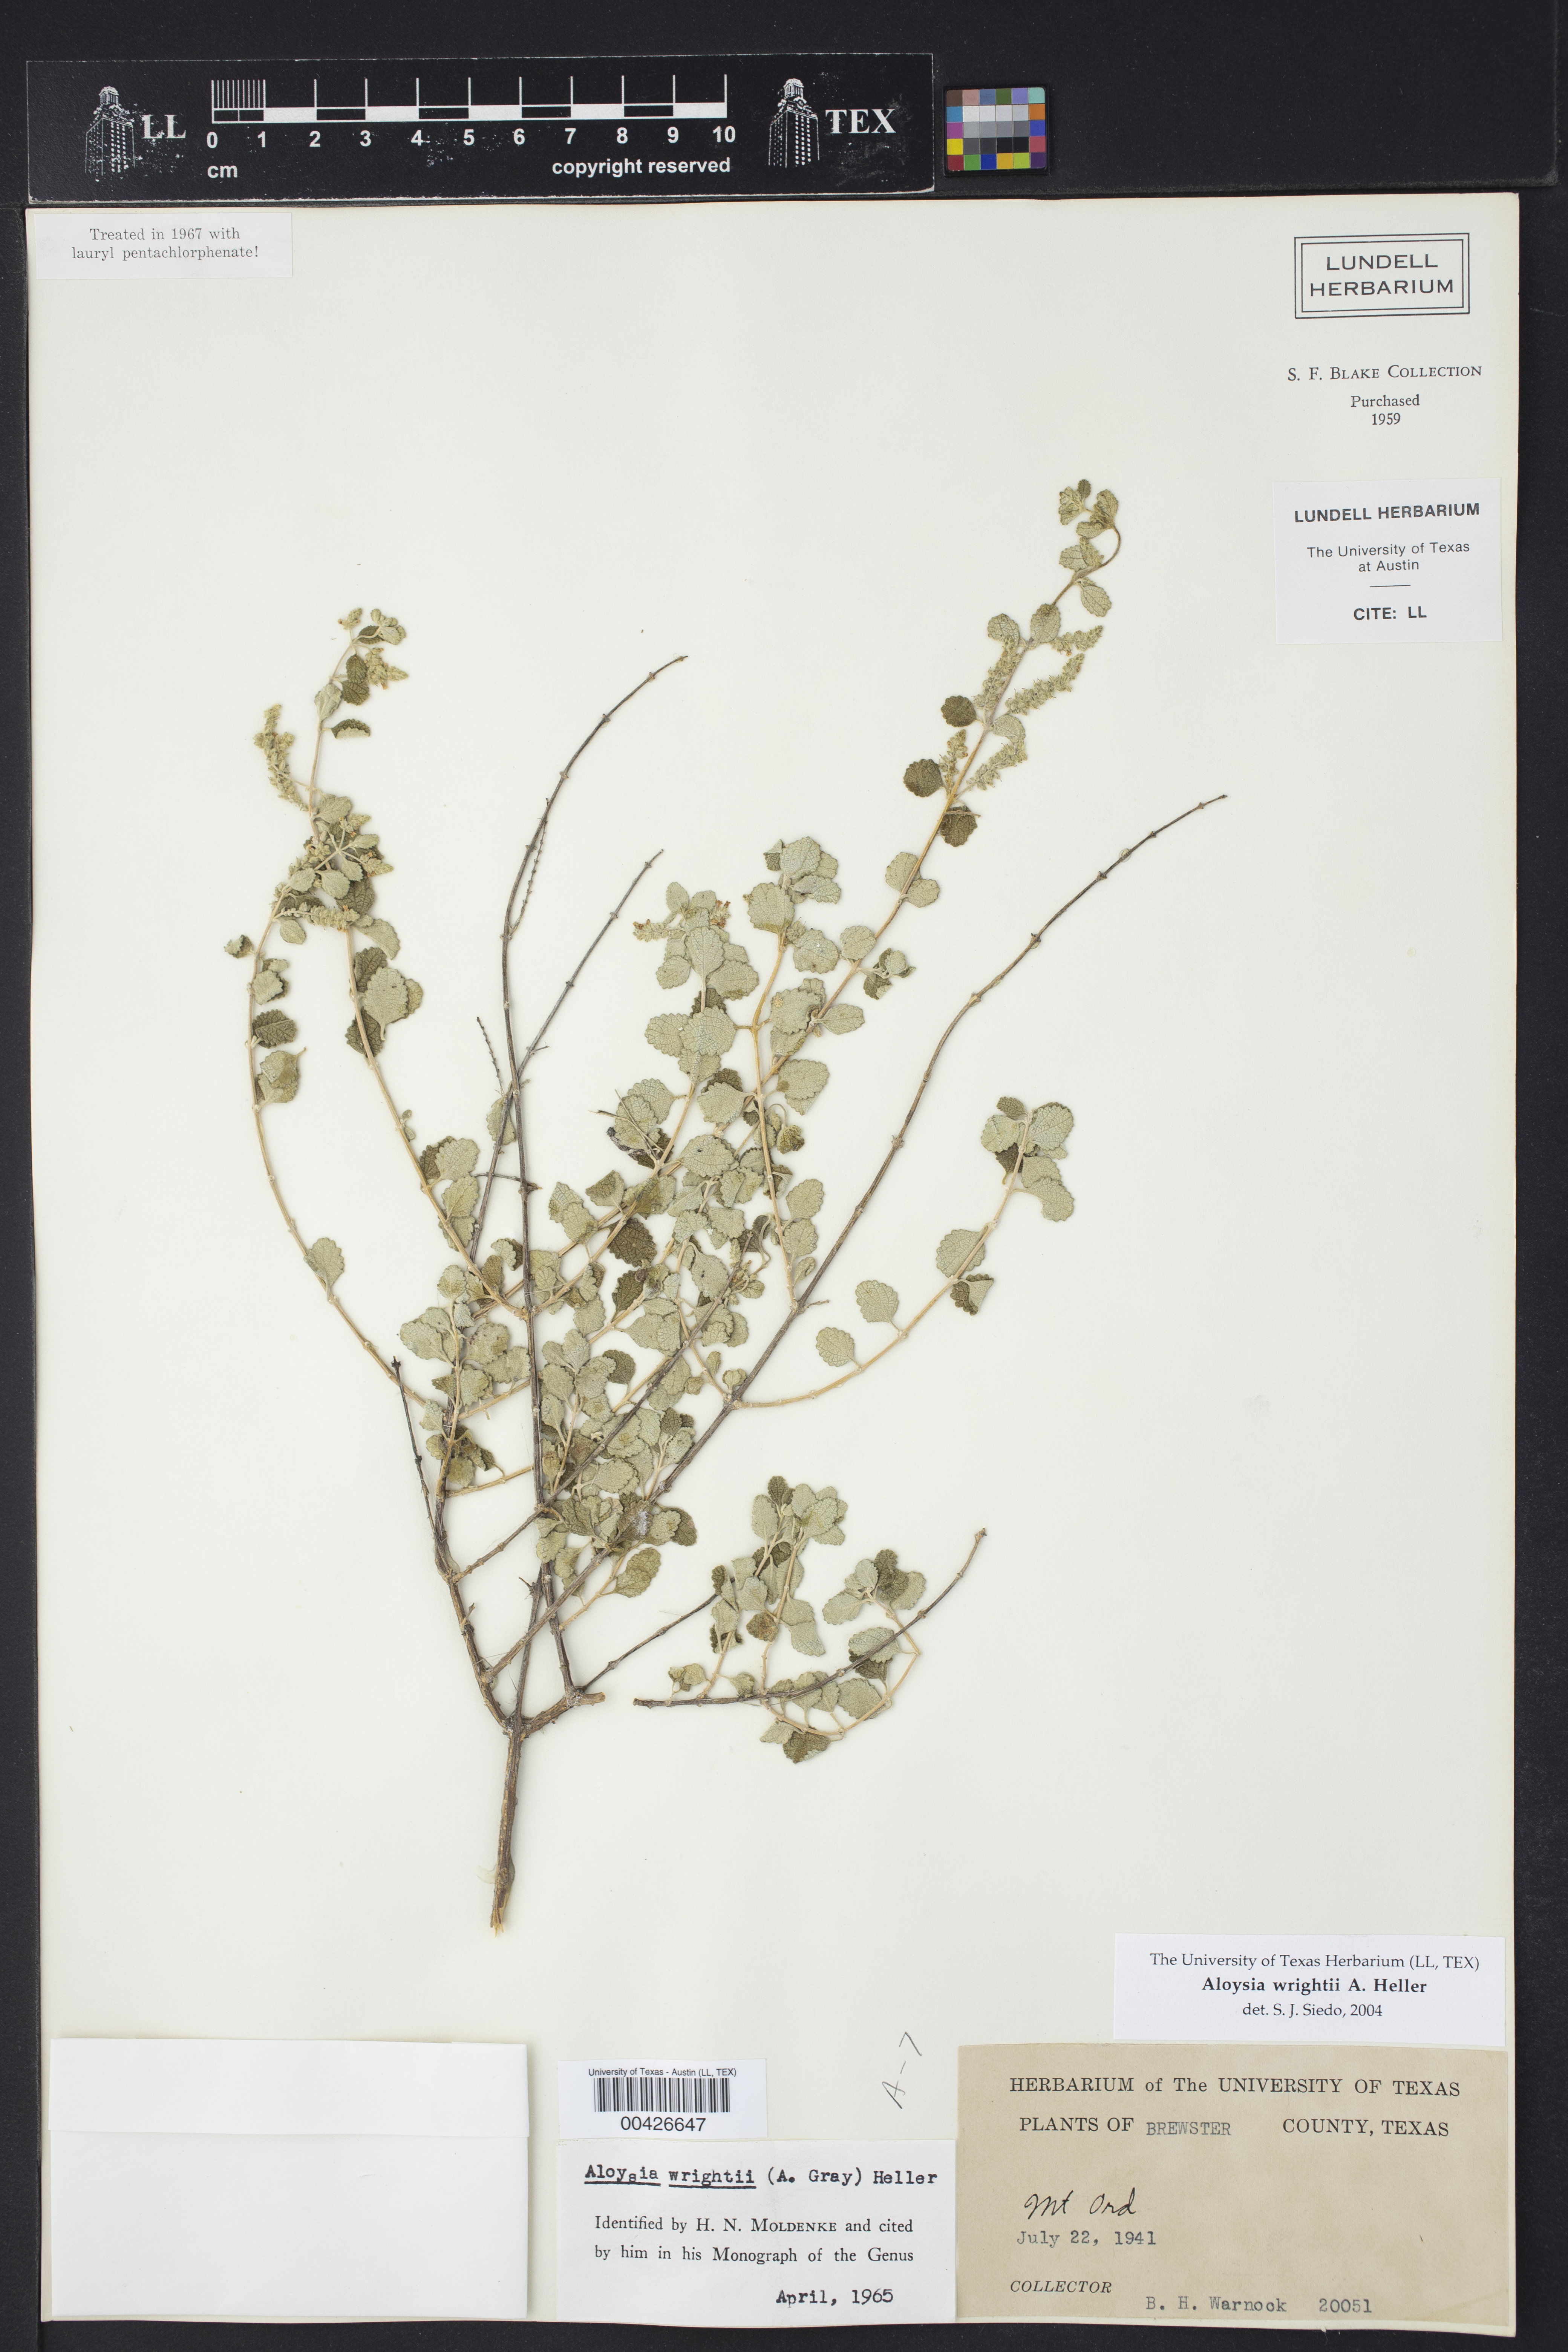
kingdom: Plantae
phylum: Tracheophyta
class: Magnoliopsida
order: Lamiales
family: Verbenaceae
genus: Aloysia
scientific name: Aloysia wrightii
